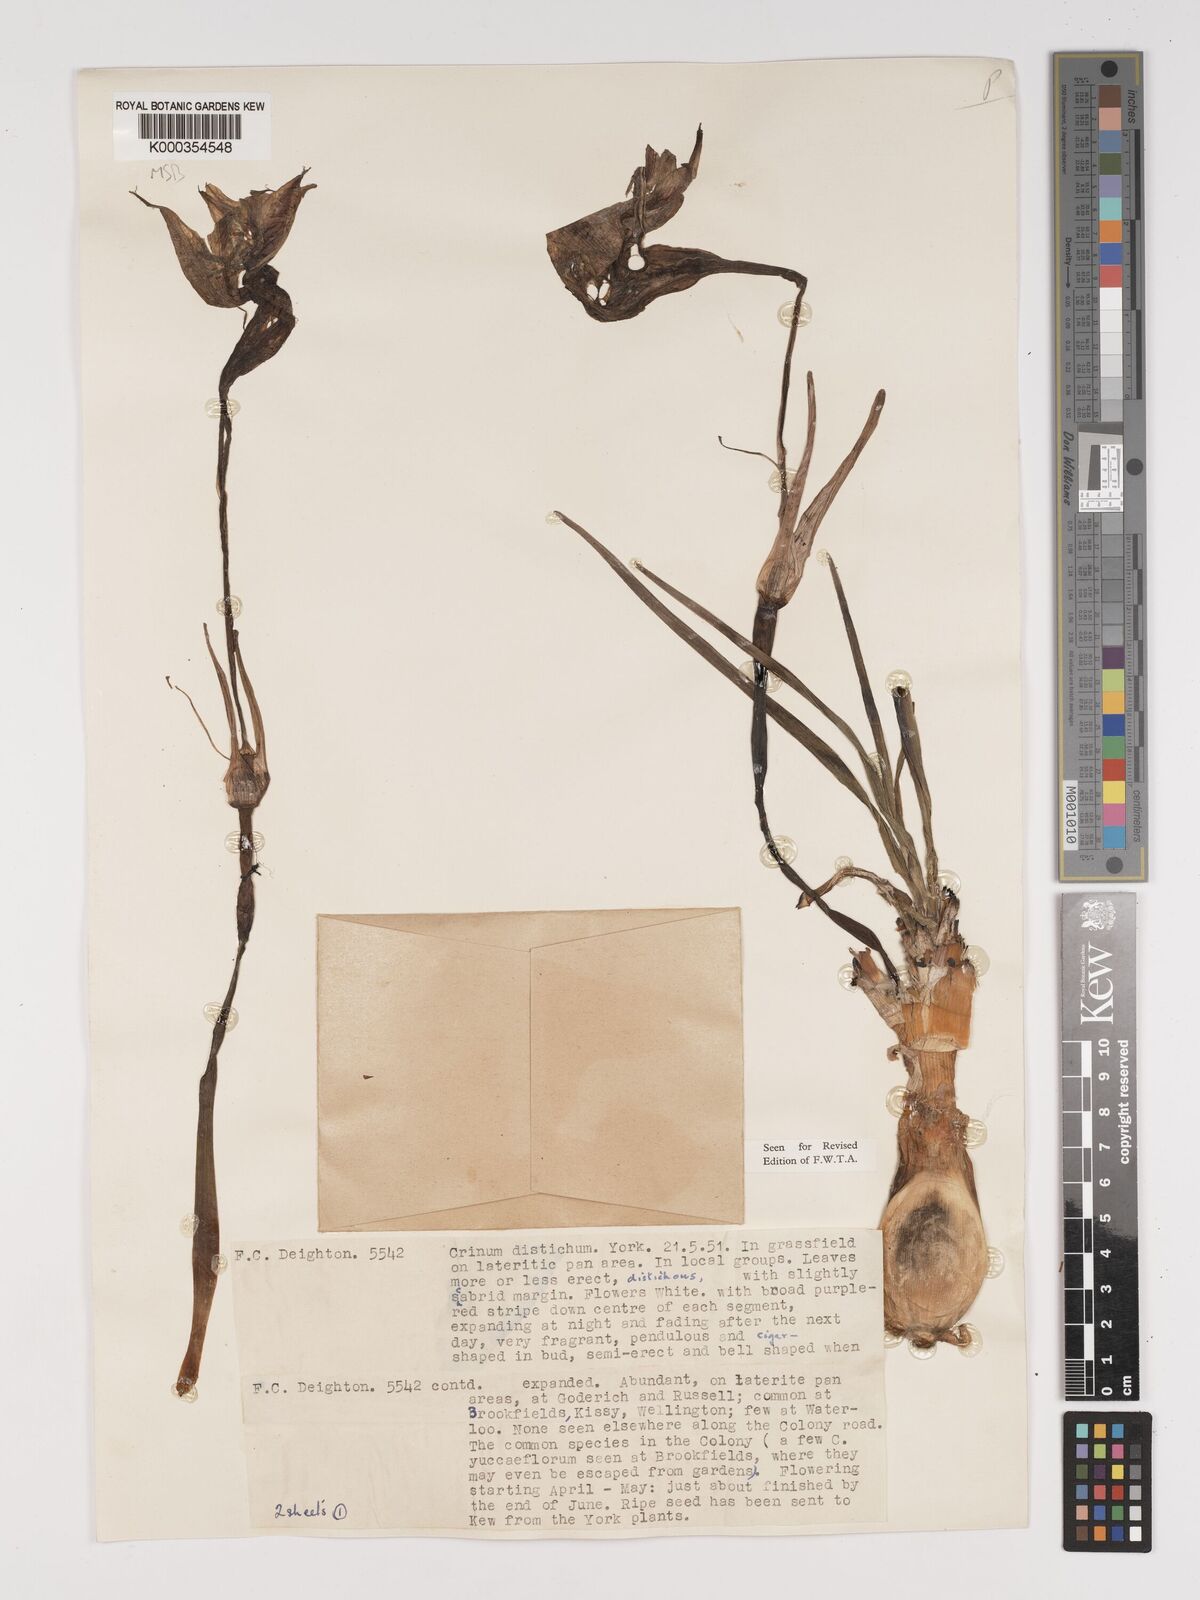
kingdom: Plantae
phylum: Tracheophyta
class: Liliopsida
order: Asparagales
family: Amaryllidaceae
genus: Crinum
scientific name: Crinum zeylanicum
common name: Ceylon swamplily
